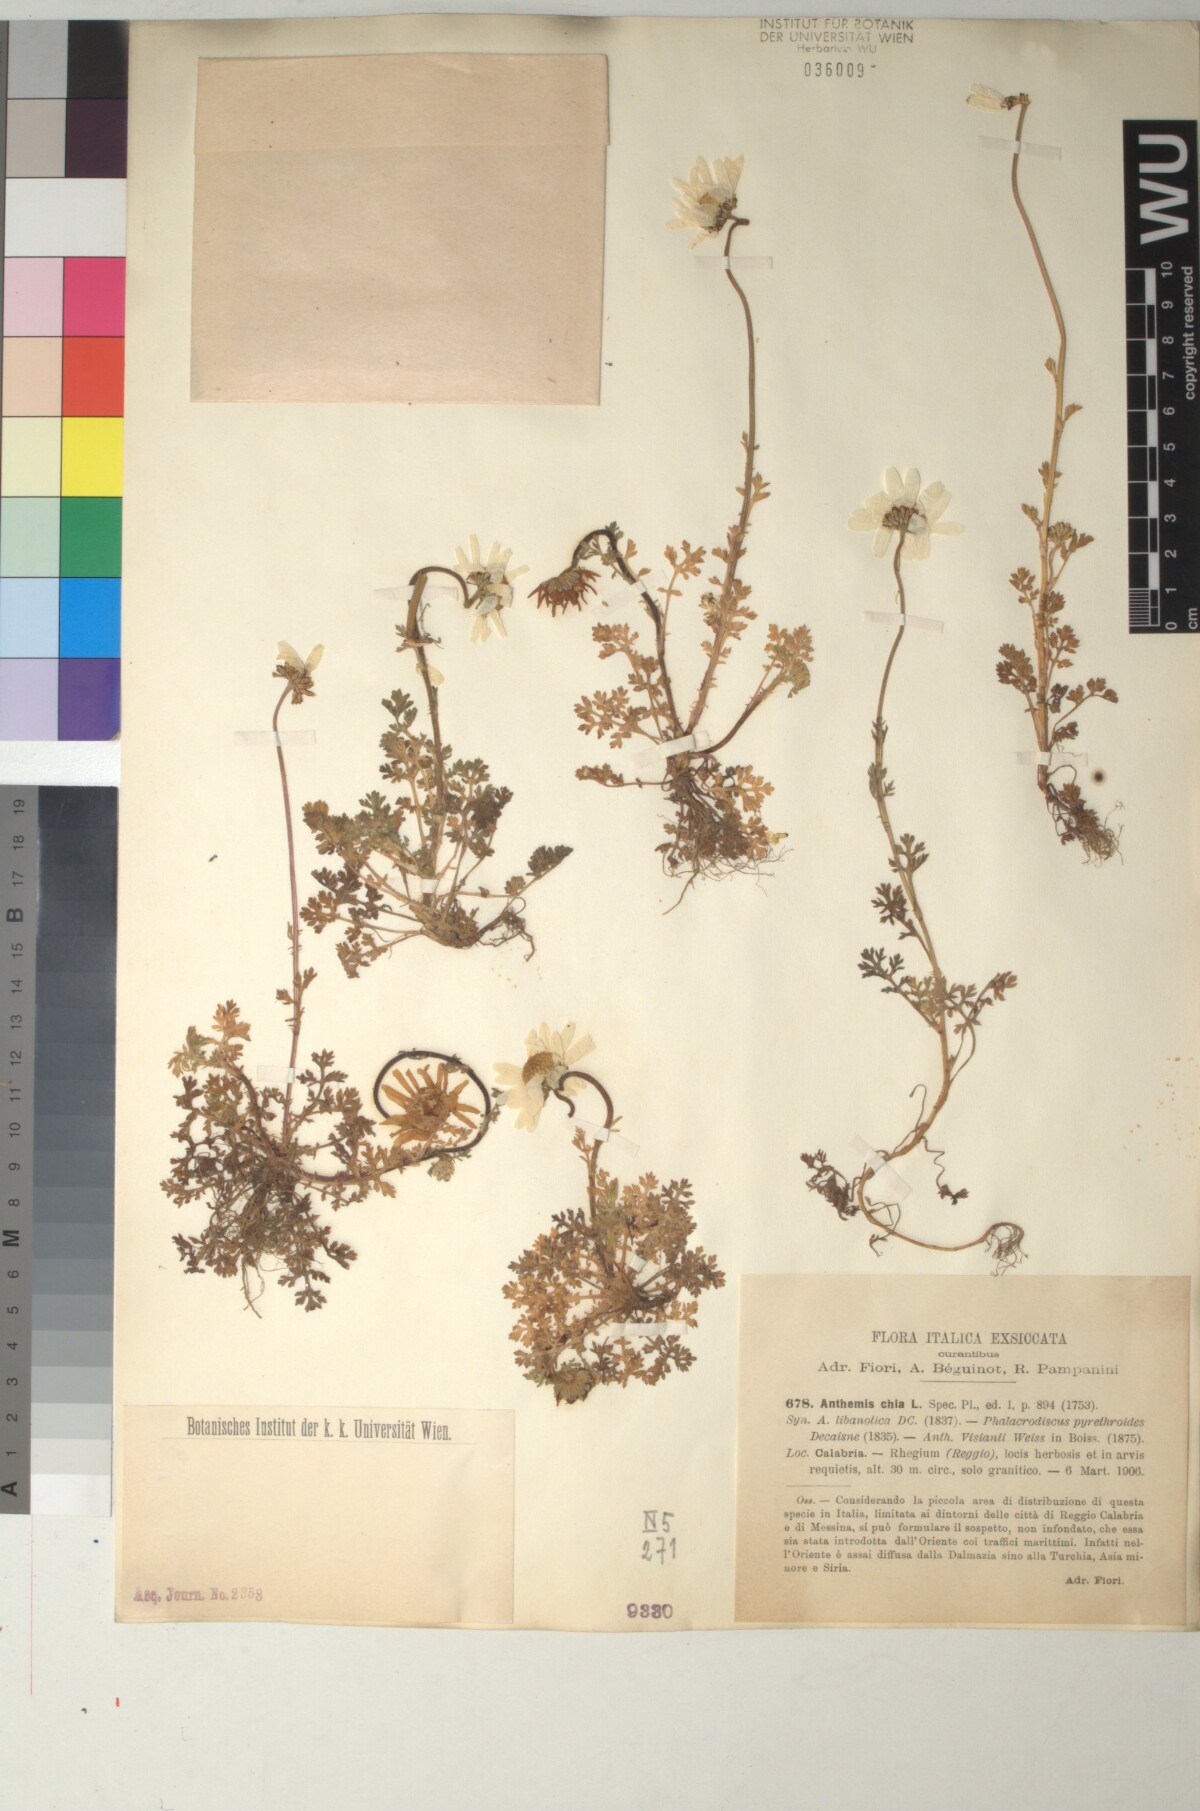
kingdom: Plantae
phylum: Tracheophyta
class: Magnoliopsida
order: Asterales
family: Asteraceae
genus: Anthemis
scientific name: Anthemis chia
